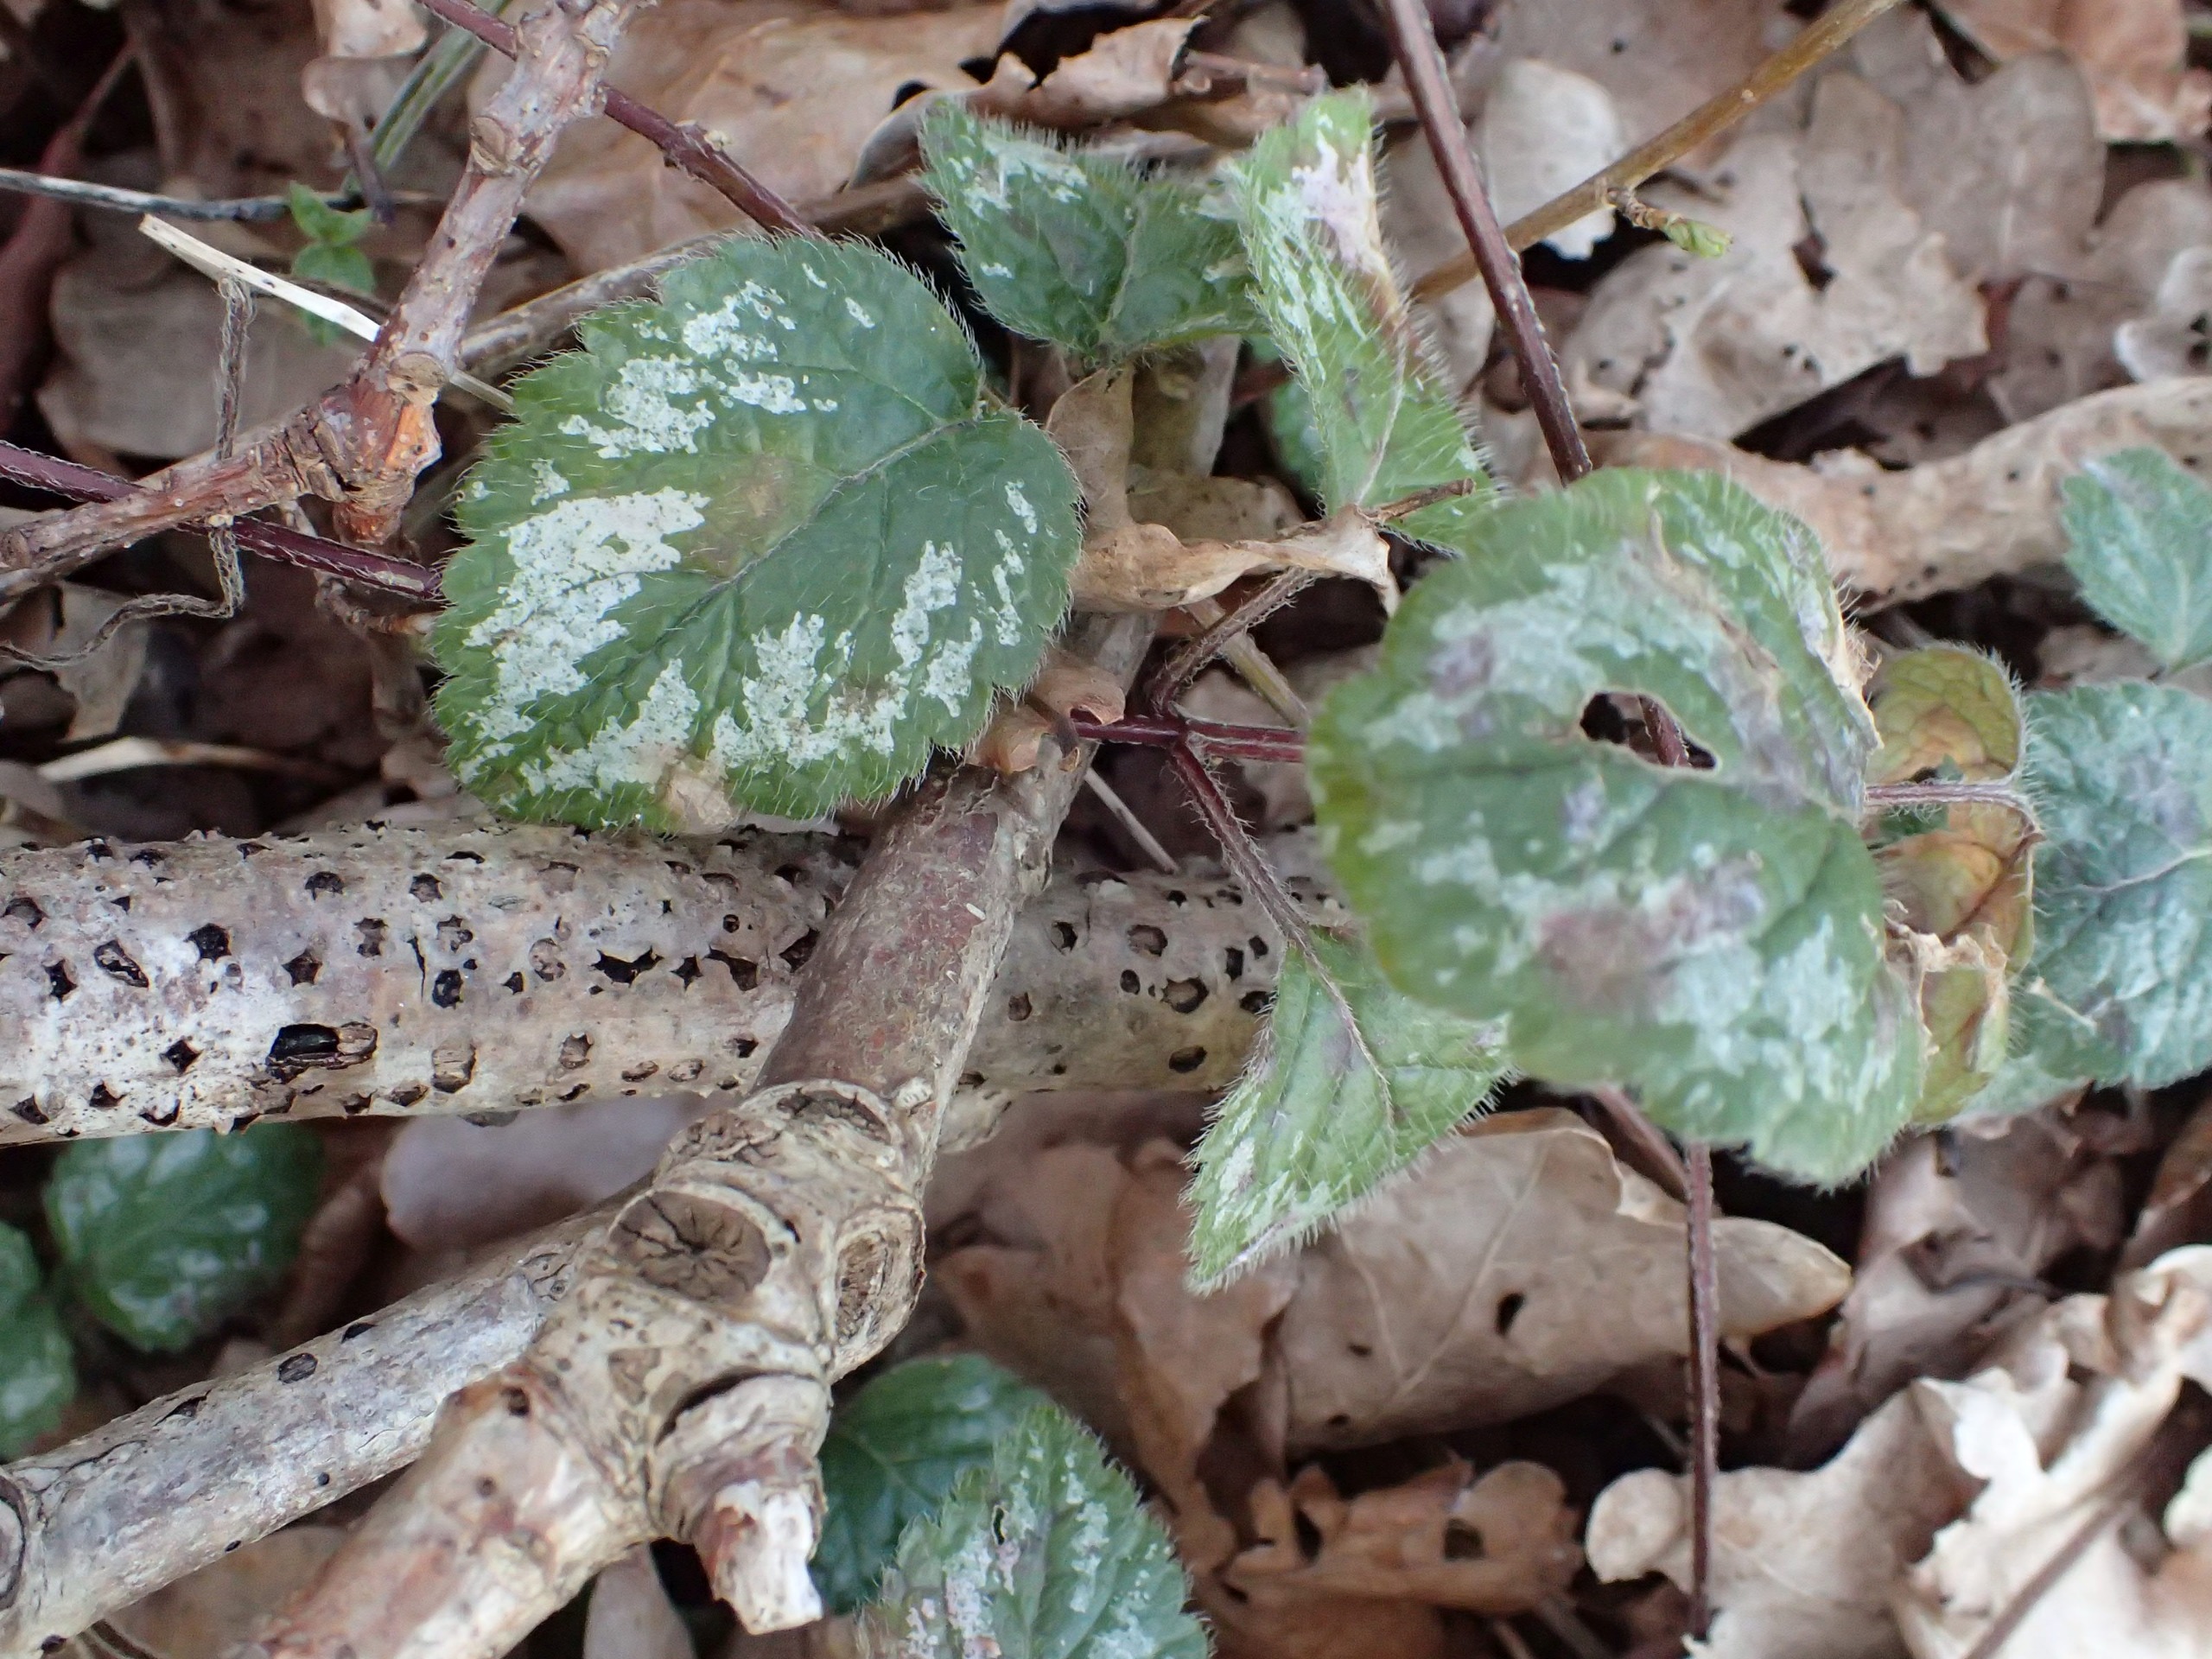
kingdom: Plantae
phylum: Tracheophyta
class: Magnoliopsida
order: Lamiales
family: Lamiaceae
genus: Lamium
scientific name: Lamium galeobdolon
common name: Have-guldnælde
